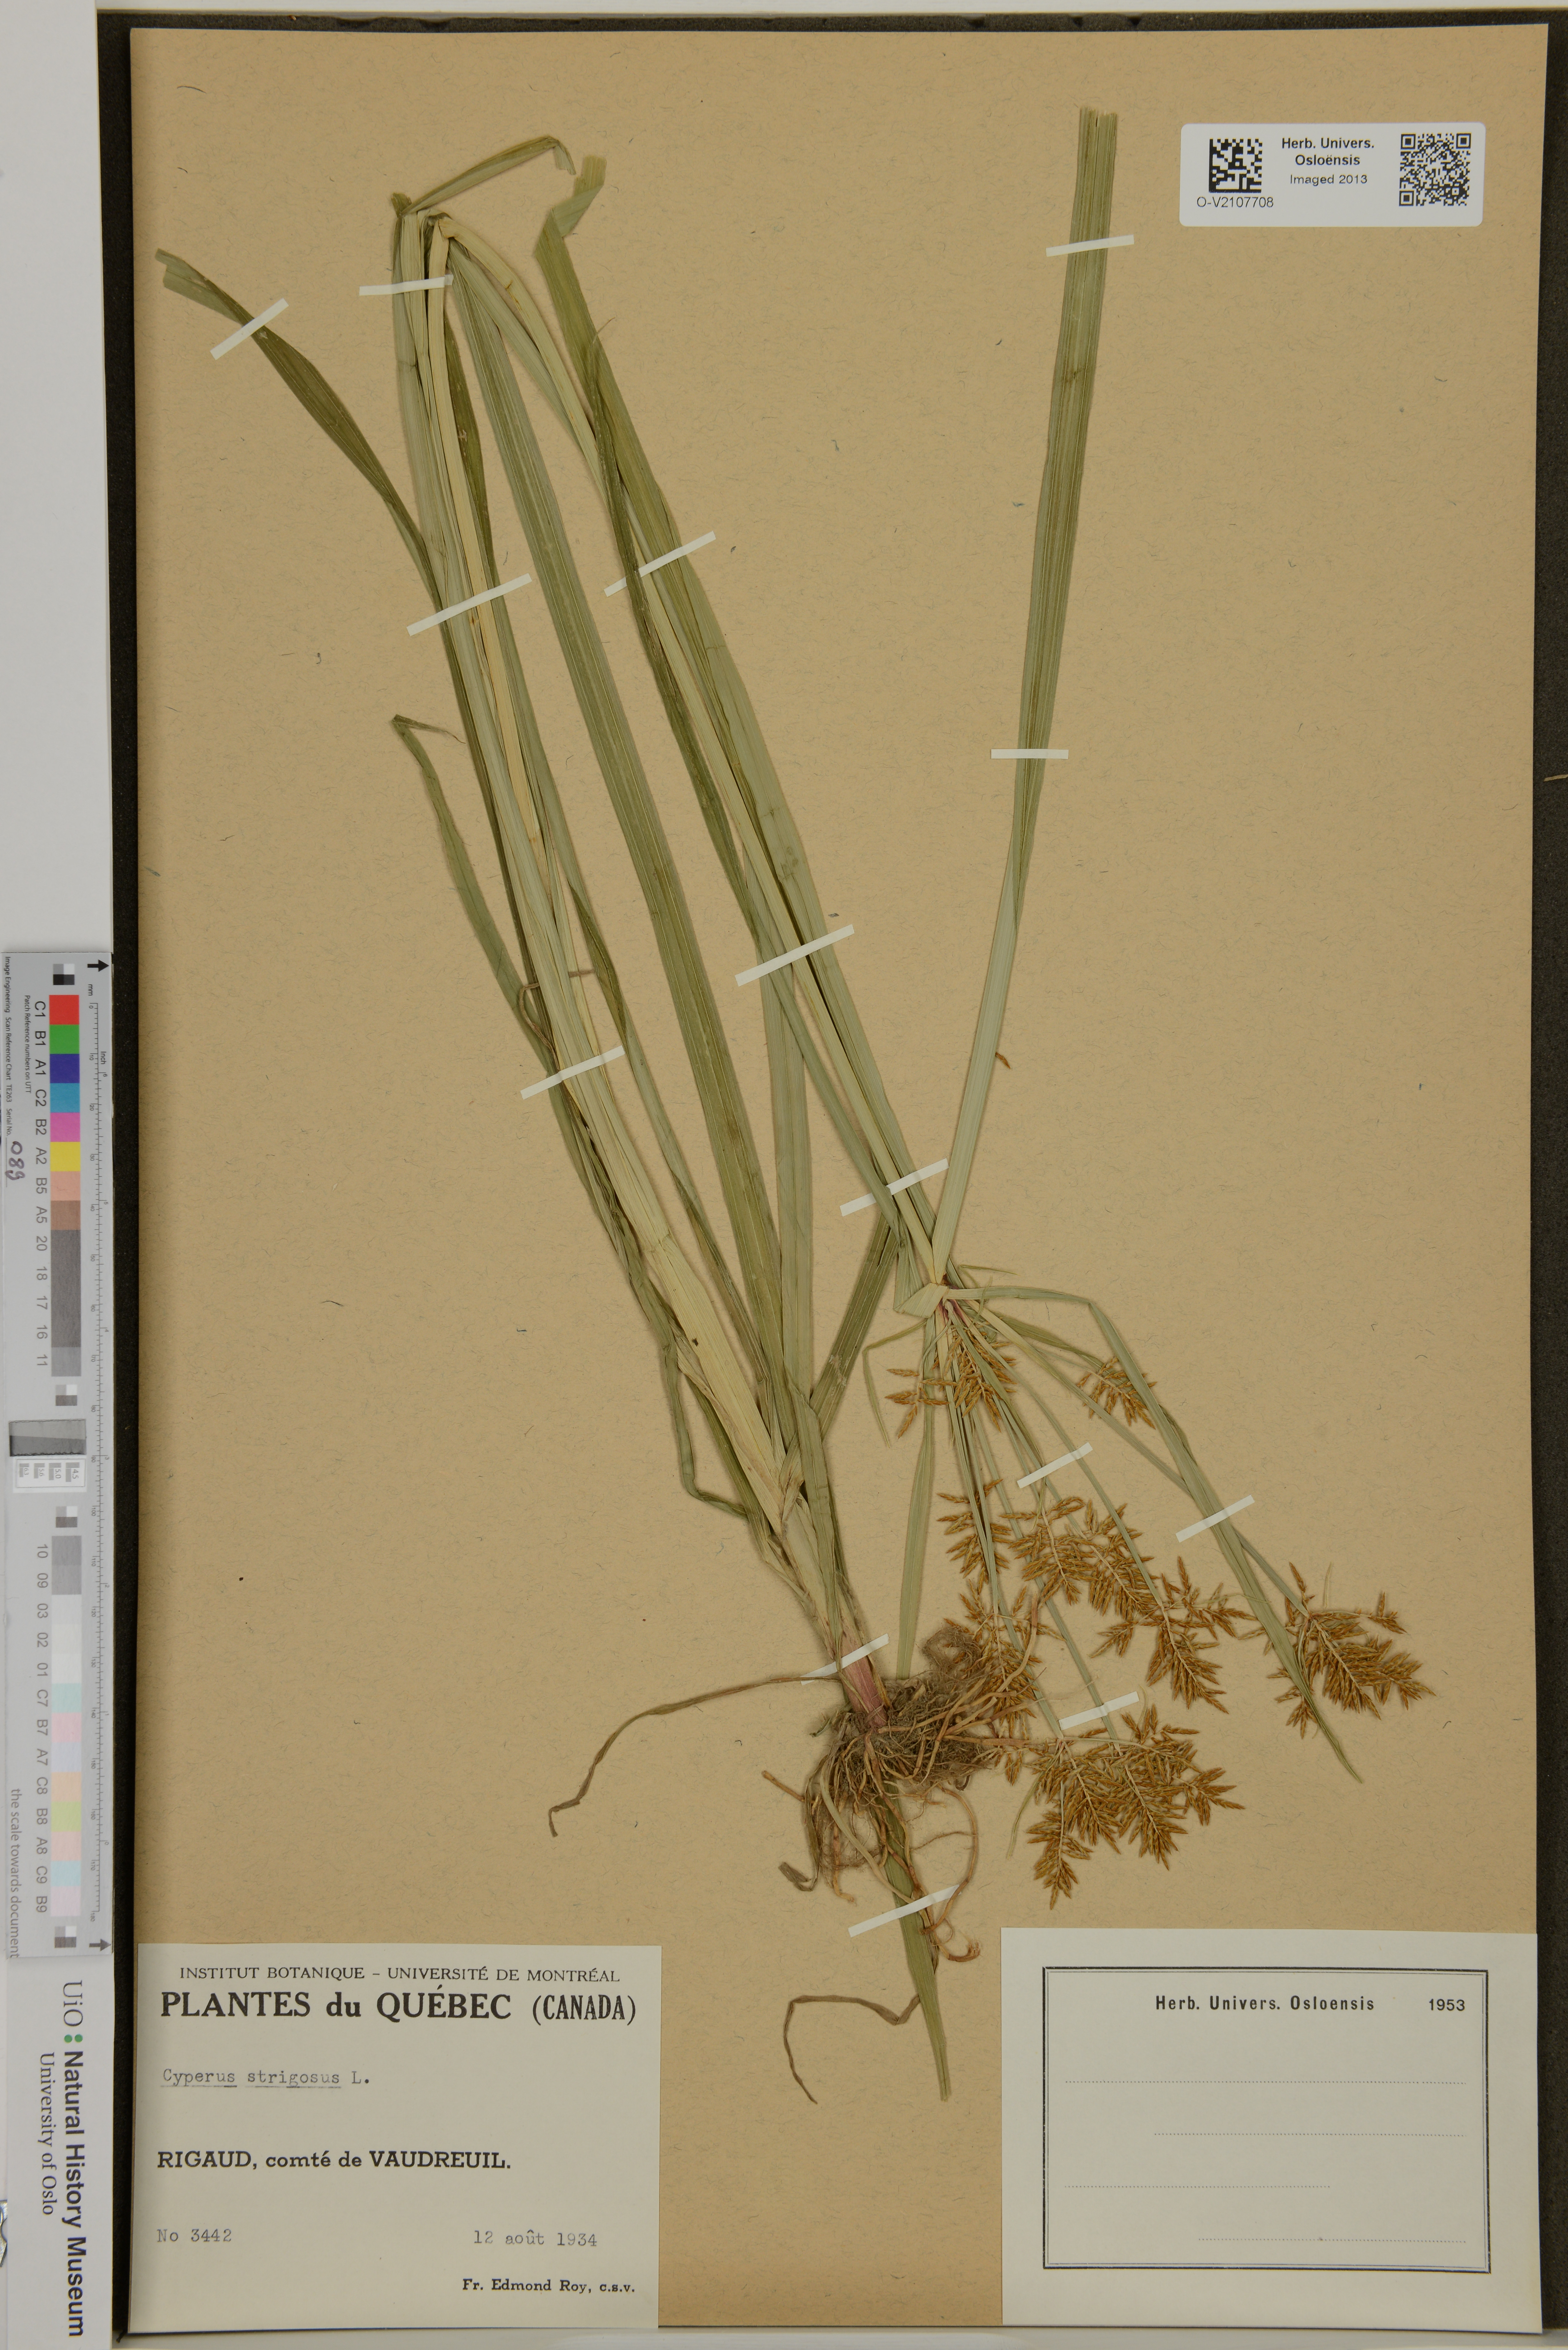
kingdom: Plantae
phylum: Tracheophyta
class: Liliopsida
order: Poales
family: Cyperaceae
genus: Cyperus
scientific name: Cyperus strigosus
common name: False nutsedge
